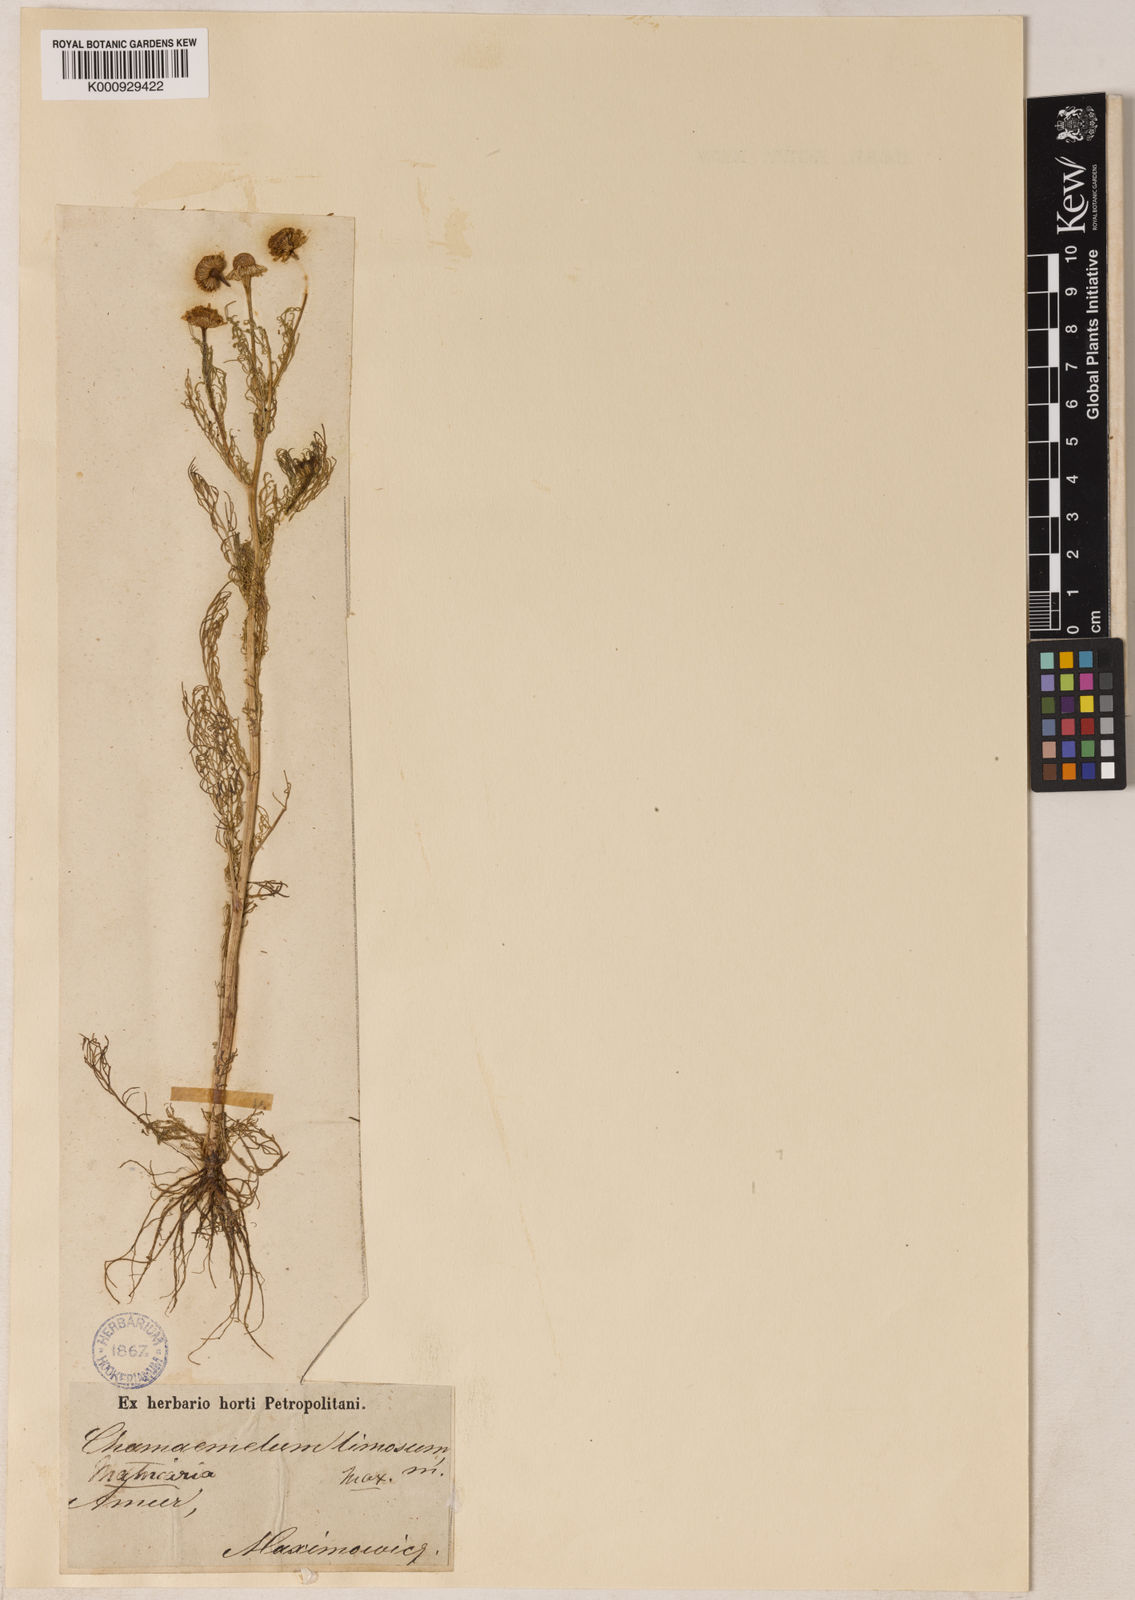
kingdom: Plantae
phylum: Tracheophyta
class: Magnoliopsida
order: Asterales
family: Asteraceae
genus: Tripleurospermum
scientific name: Tripleurospermum limosum
